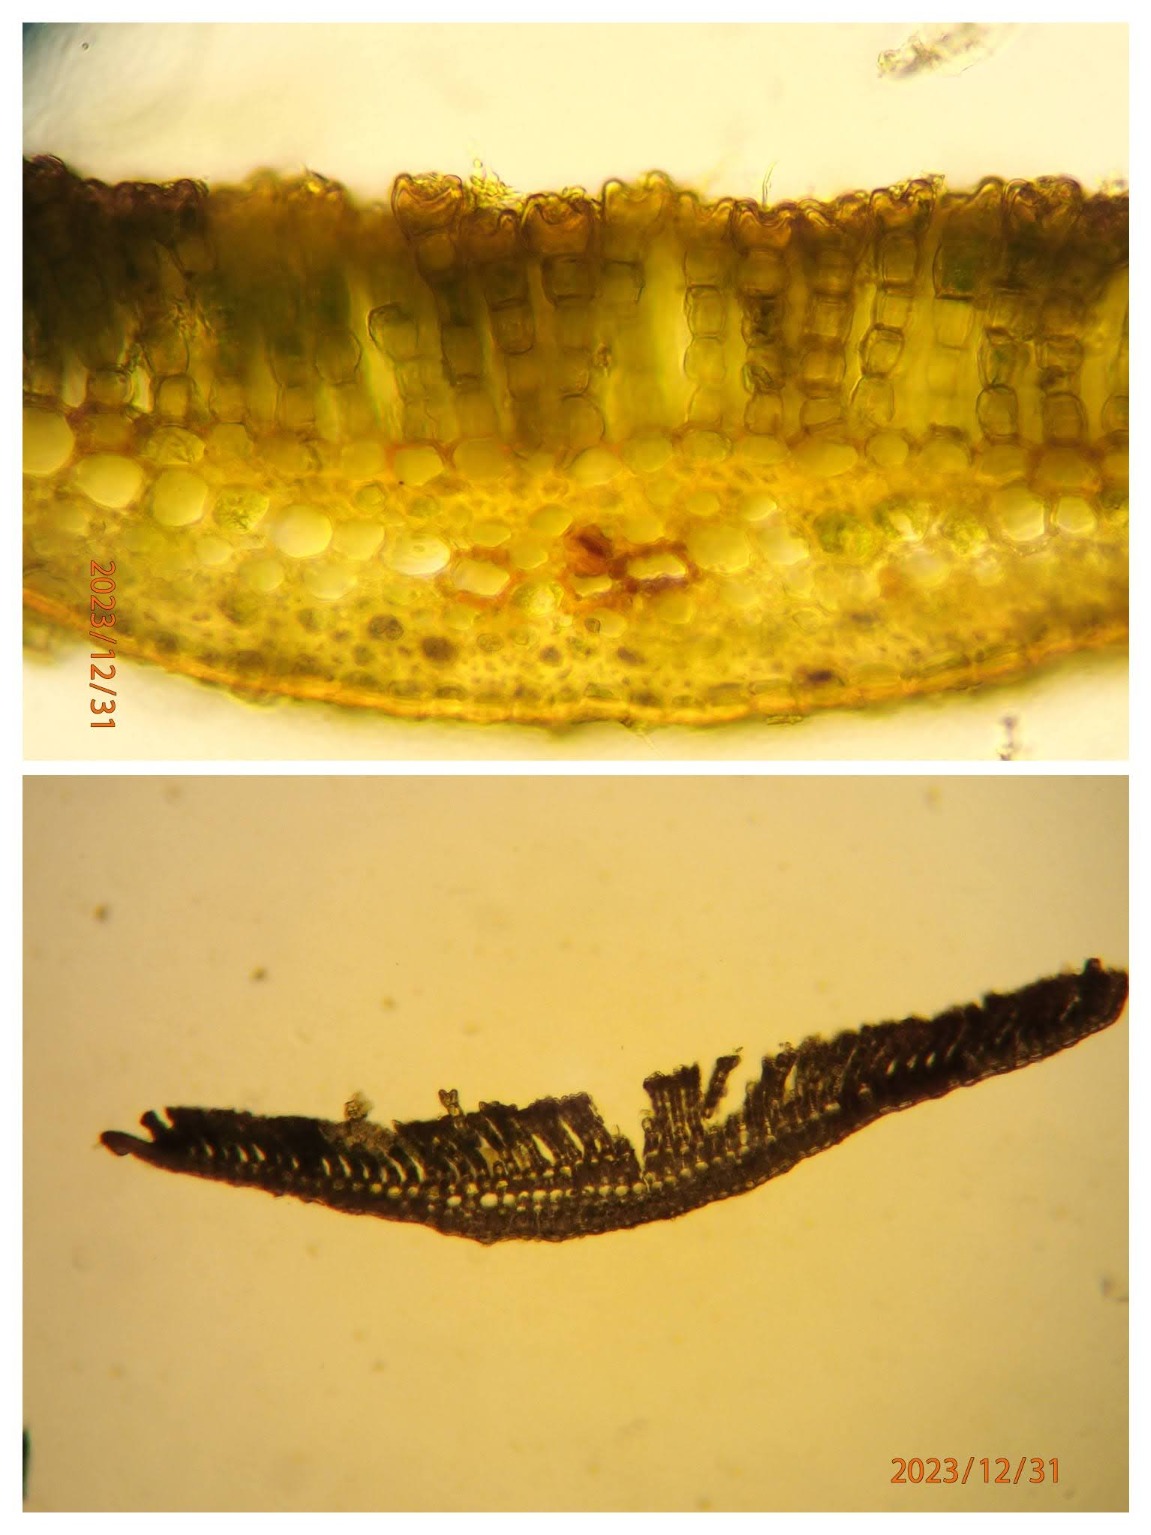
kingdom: Plantae
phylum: Bryophyta
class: Polytrichopsida
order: Polytrichales
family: Polytrichaceae
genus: Polytrichum
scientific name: Polytrichum commune
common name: Almindelig jomfruhår
